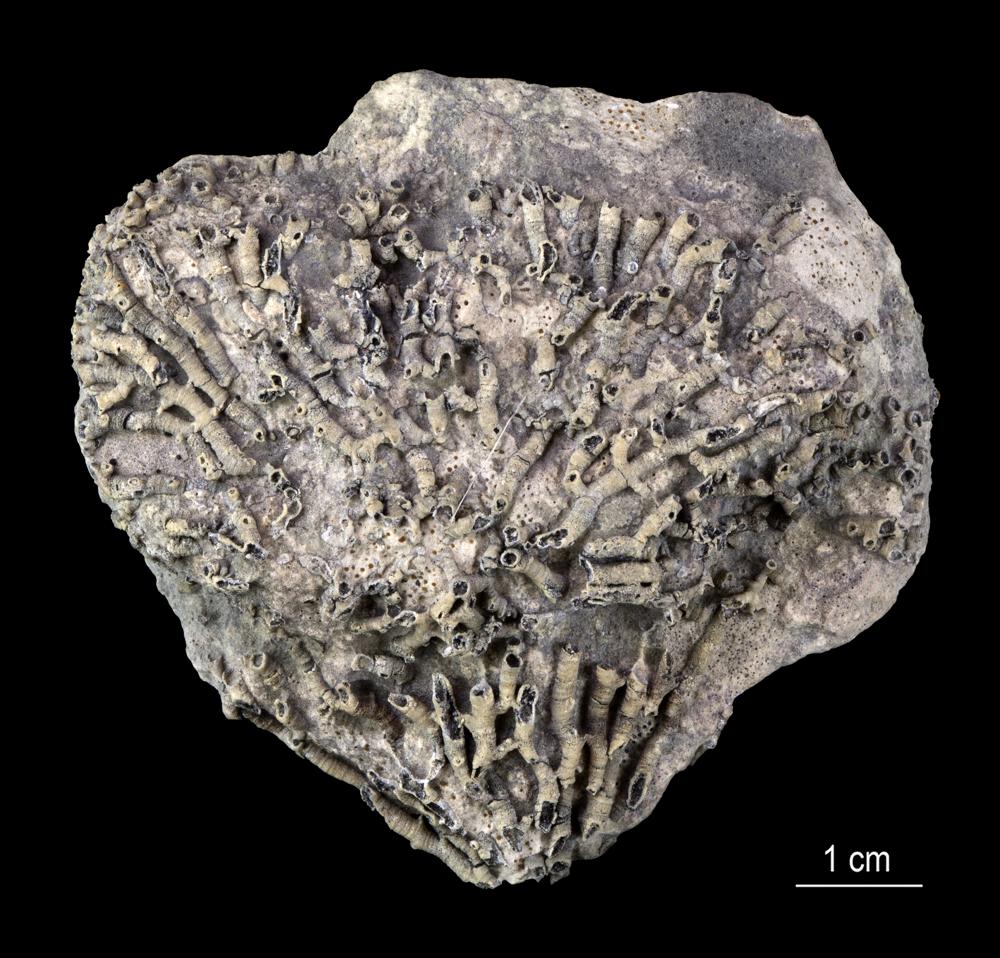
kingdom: Animalia
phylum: Cnidaria
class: Anthozoa
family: Syringoporidae
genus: Syringopora
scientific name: Syringopora
